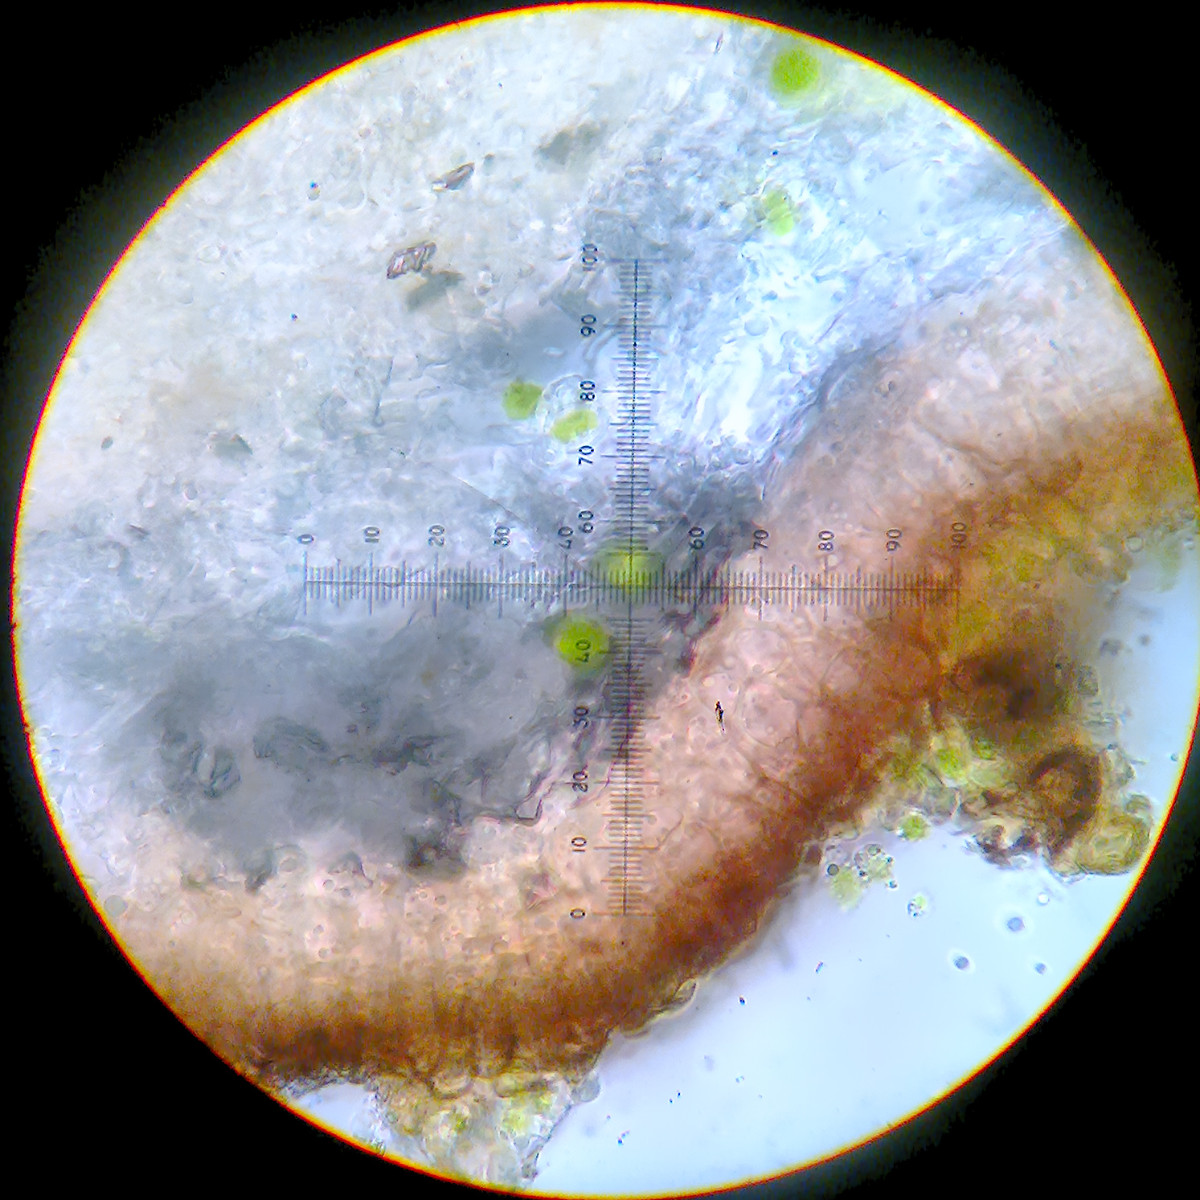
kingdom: Fungi
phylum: Ascomycota
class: Eurotiomycetes
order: Verrucariales
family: Verrucariaceae
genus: Staurothele
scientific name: Staurothele pulvinata
